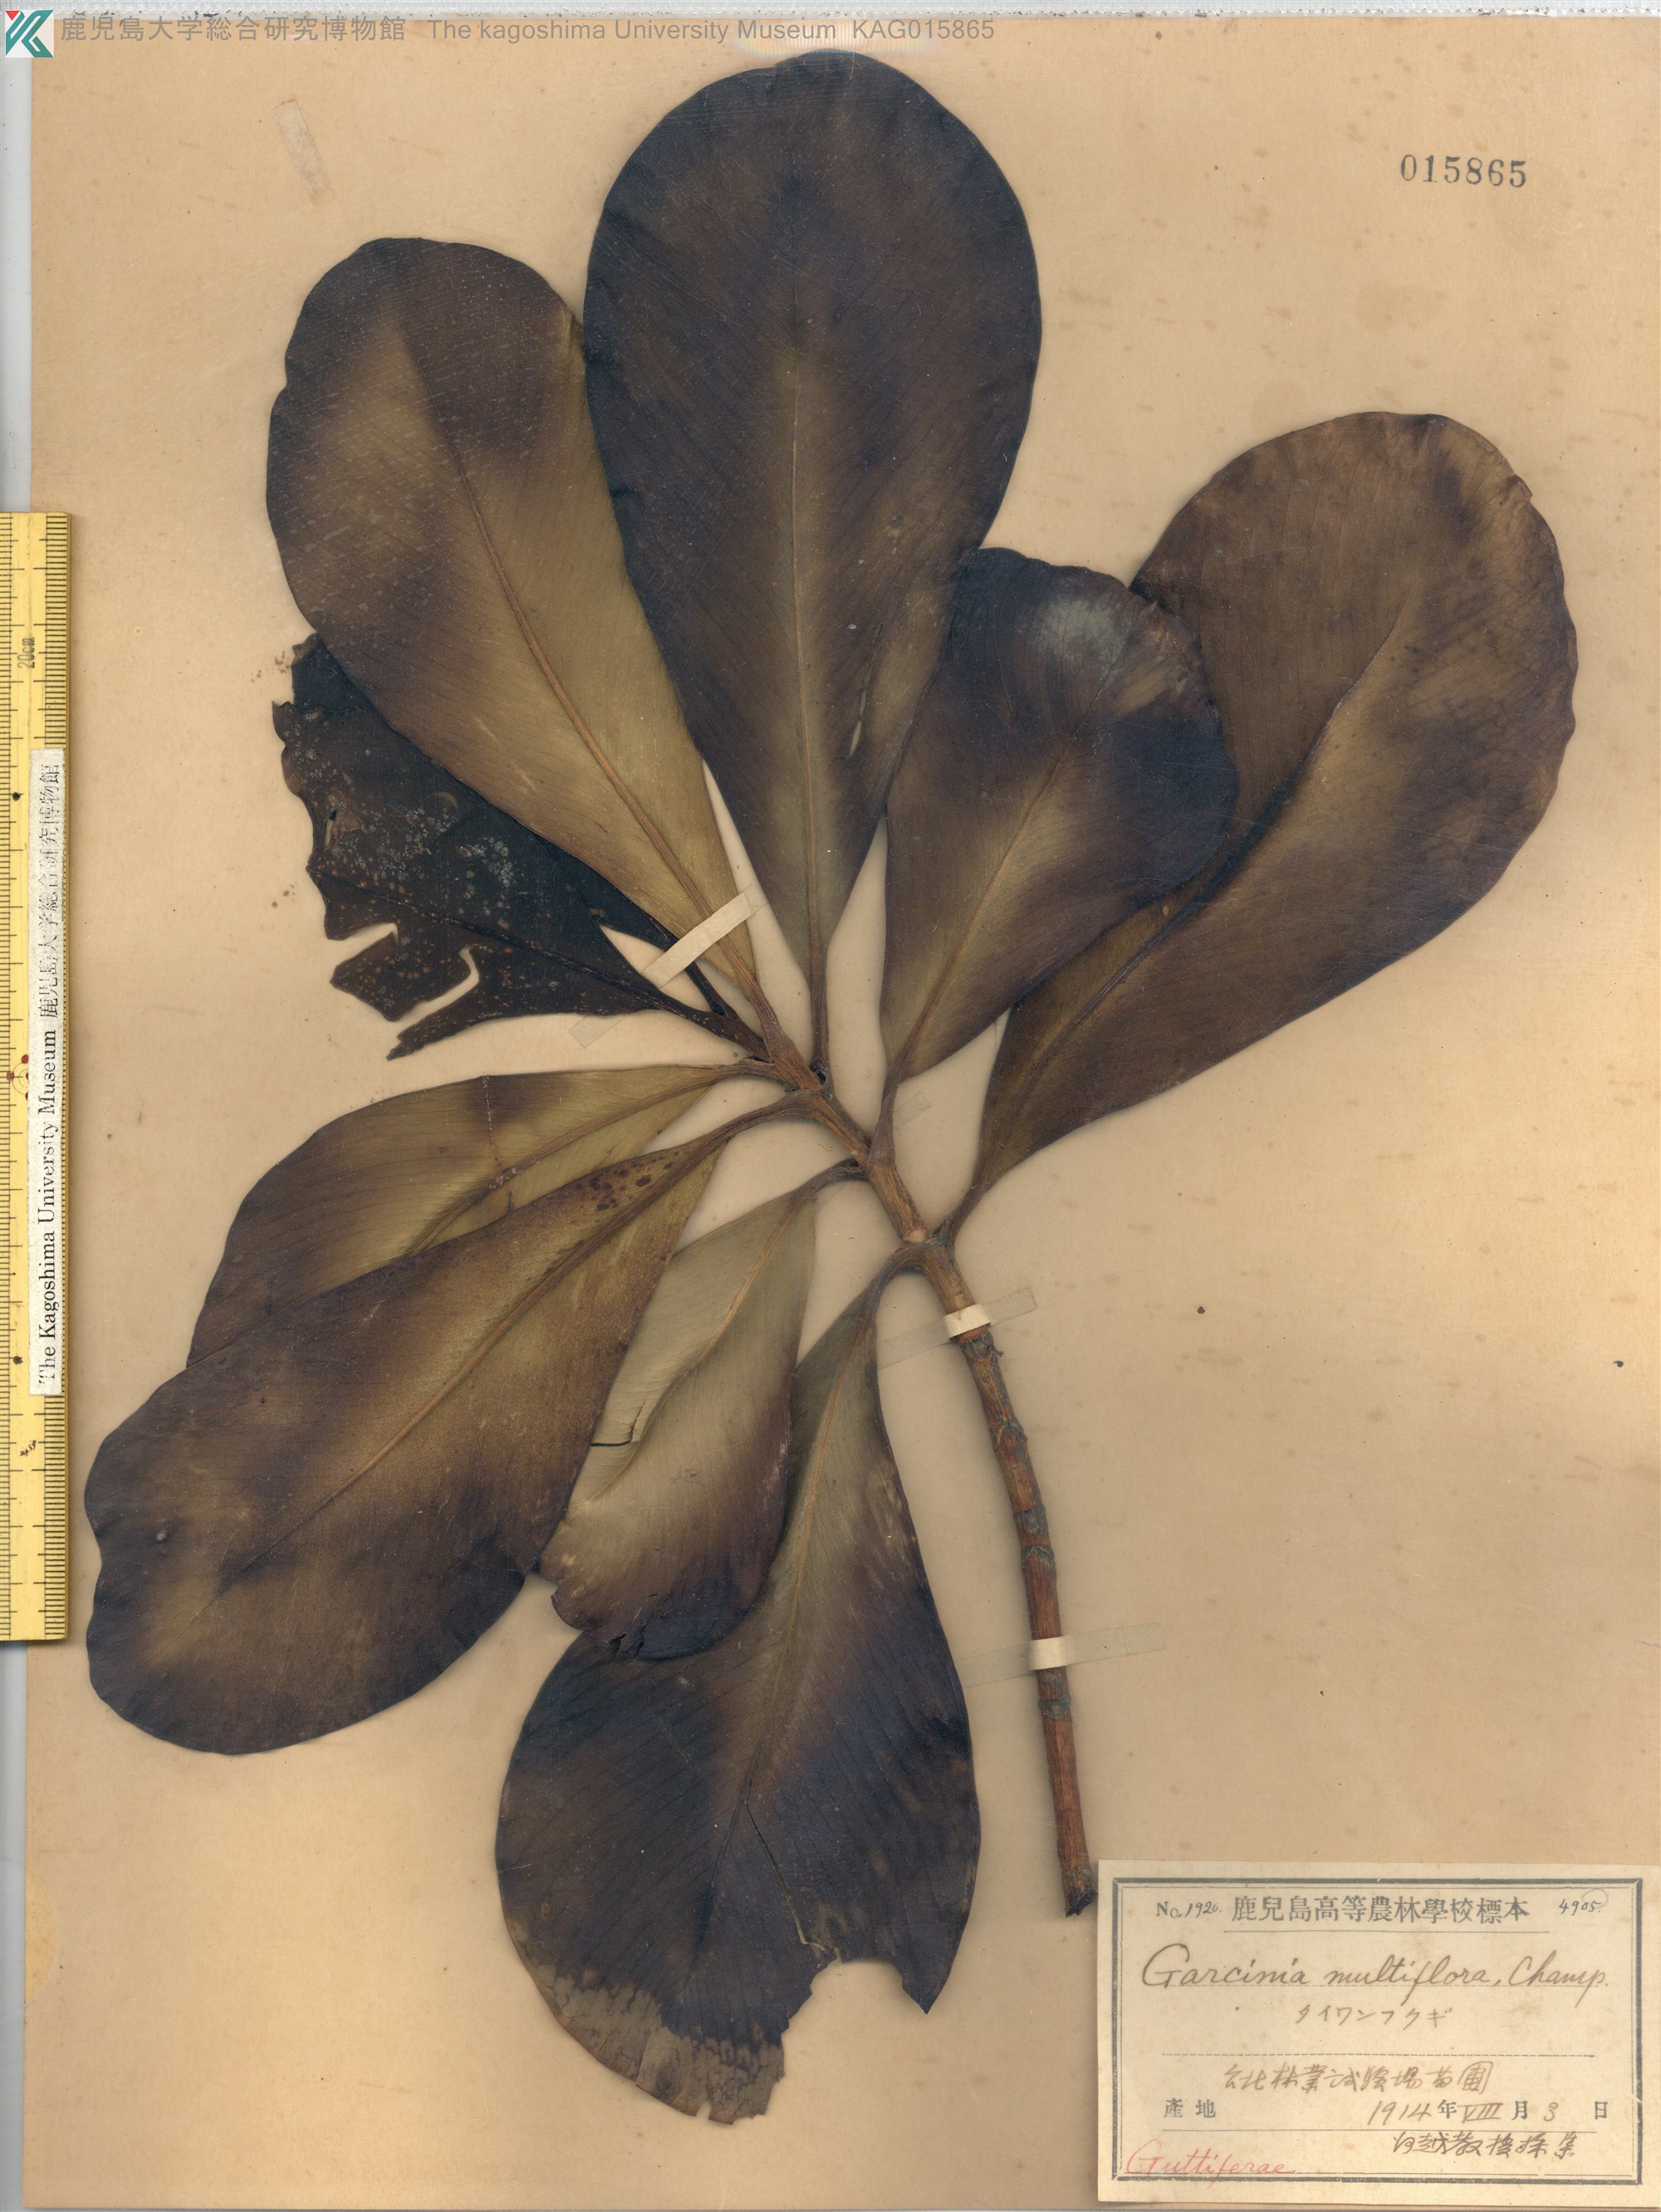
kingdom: Plantae
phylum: Tracheophyta
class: Magnoliopsida
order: Malpighiales
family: Clusiaceae
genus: Garcinia
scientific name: Garcinia multiflora
